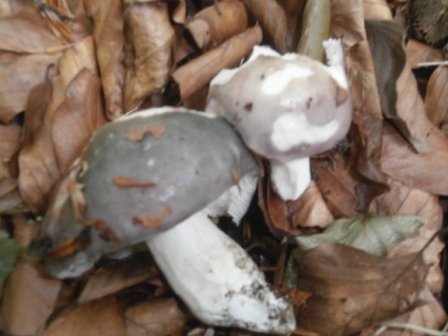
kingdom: Fungi
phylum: Basidiomycota
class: Agaricomycetes
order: Russulales
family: Russulaceae
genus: Russula
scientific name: Russula cyanoxantha
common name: broget skørhat
